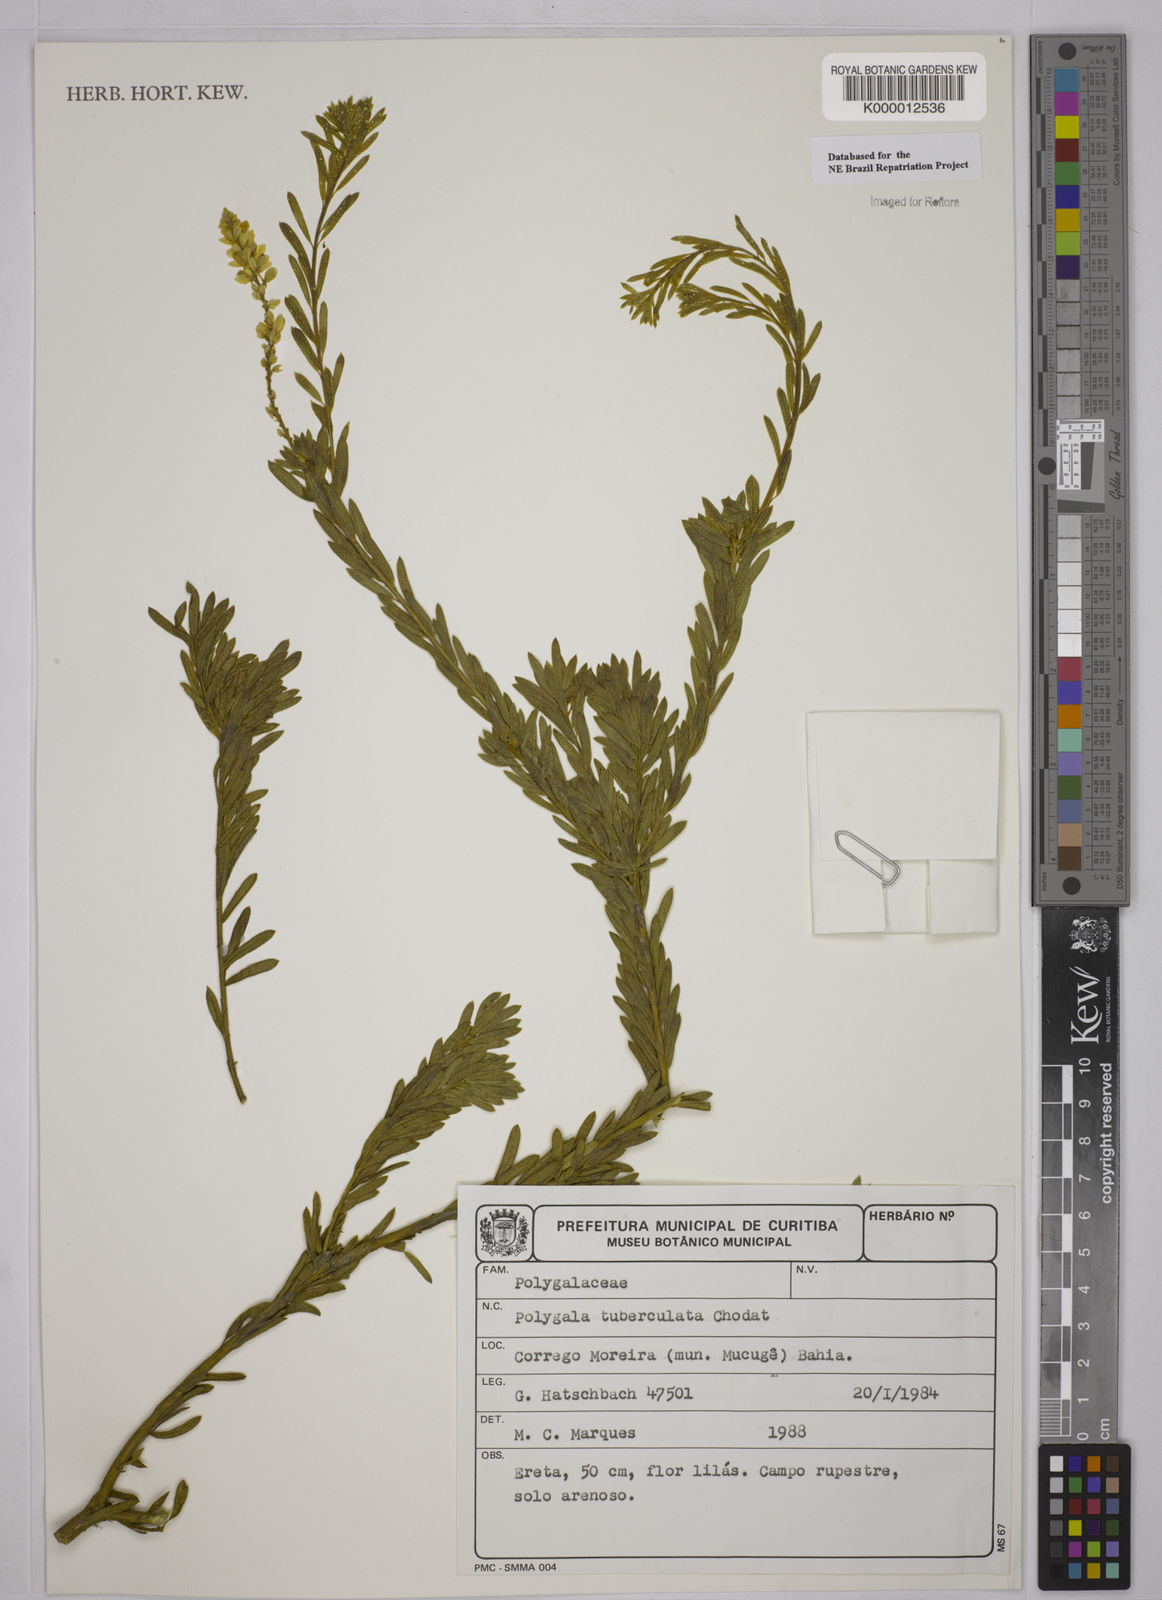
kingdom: Plantae
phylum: Tracheophyta
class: Magnoliopsida
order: Fabales
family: Polygalaceae
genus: Polygala
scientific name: Polygala tuberculata
